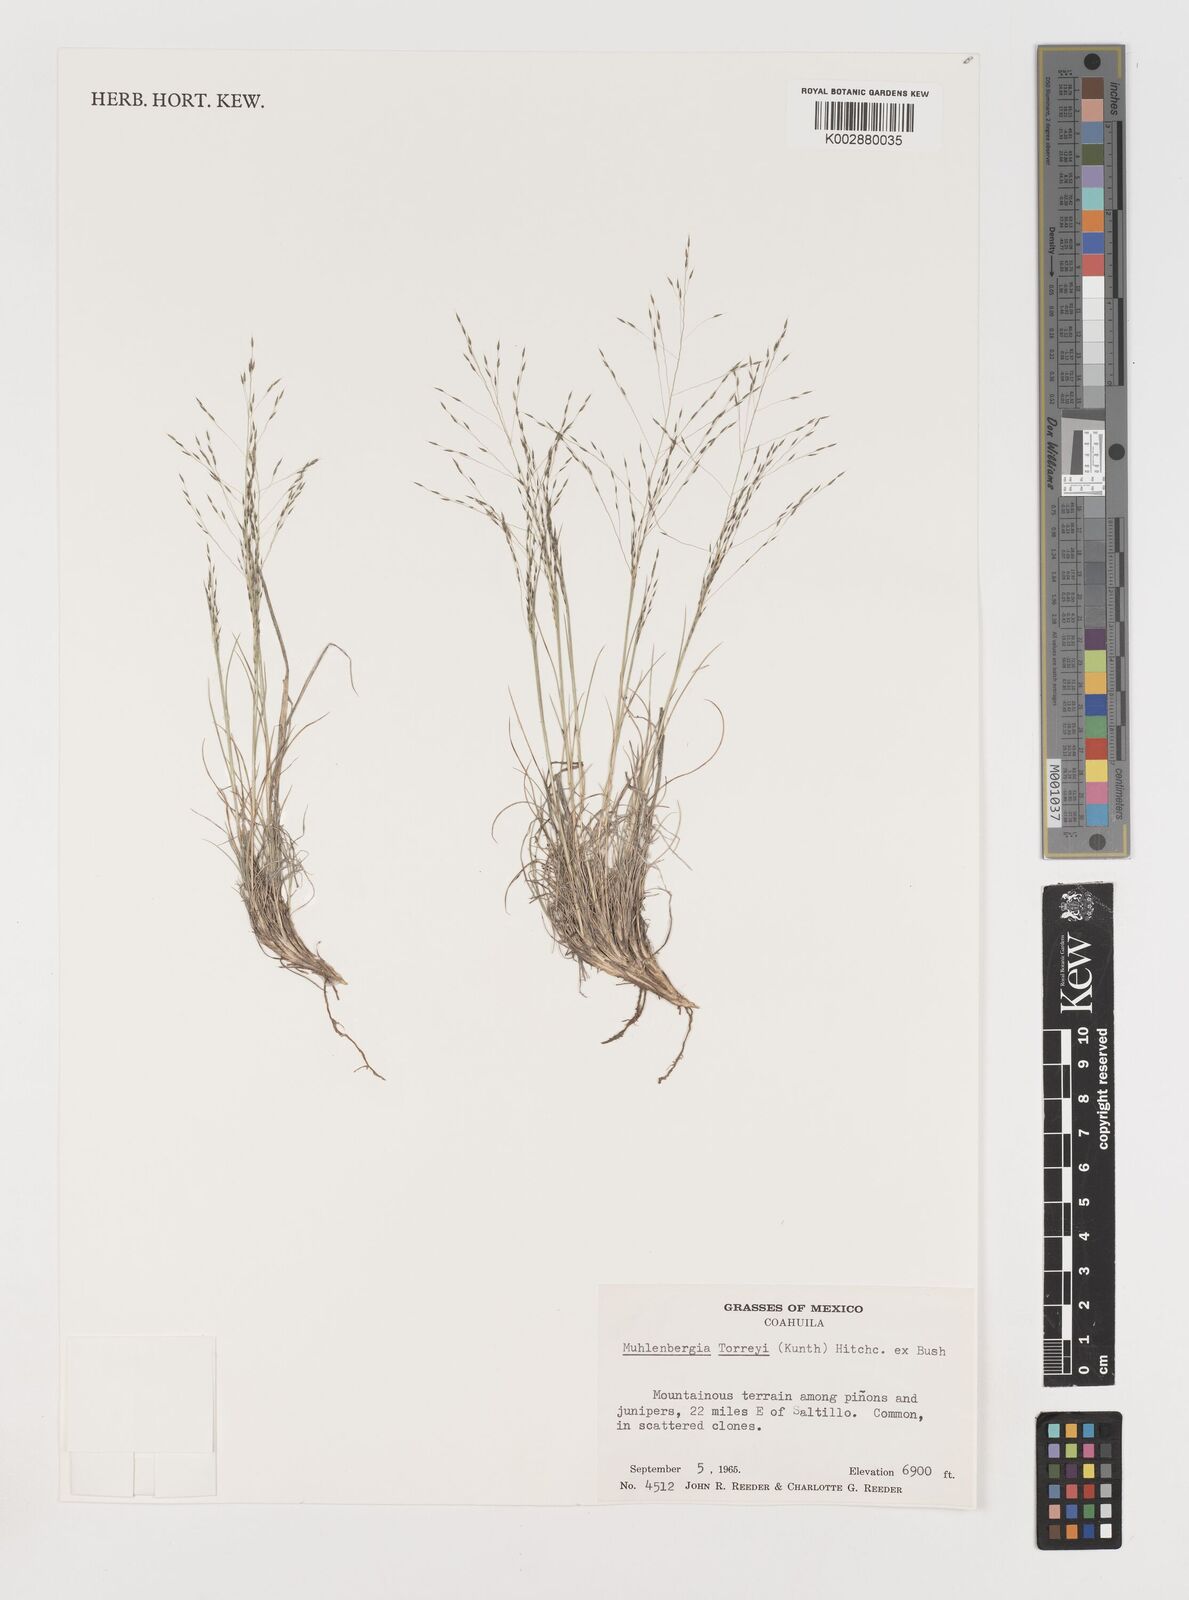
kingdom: Plantae
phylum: Tracheophyta
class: Liliopsida
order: Poales
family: Poaceae
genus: Muhlenbergia
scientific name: Muhlenbergia torreyi
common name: Ring grass
